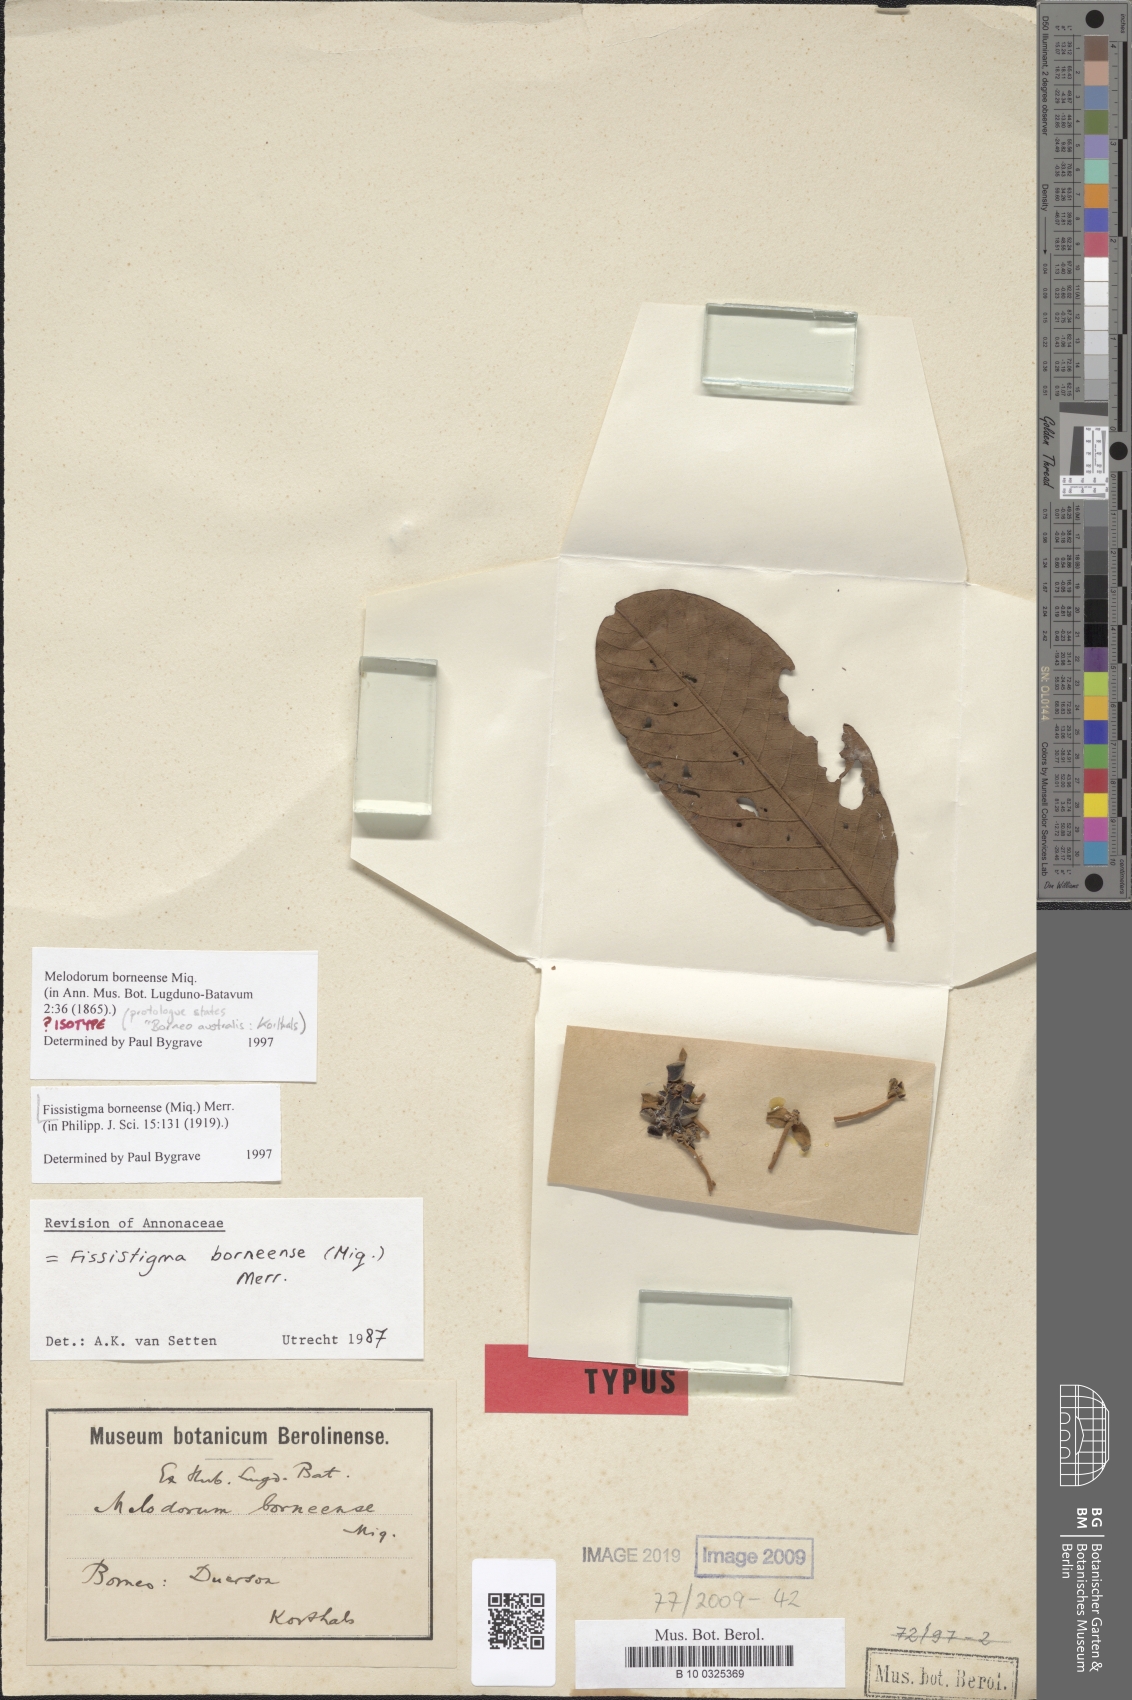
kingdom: Plantae
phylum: Tracheophyta
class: Magnoliopsida
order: Magnoliales
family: Annonaceae
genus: Fissistigma
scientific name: Fissistigma latifolium
